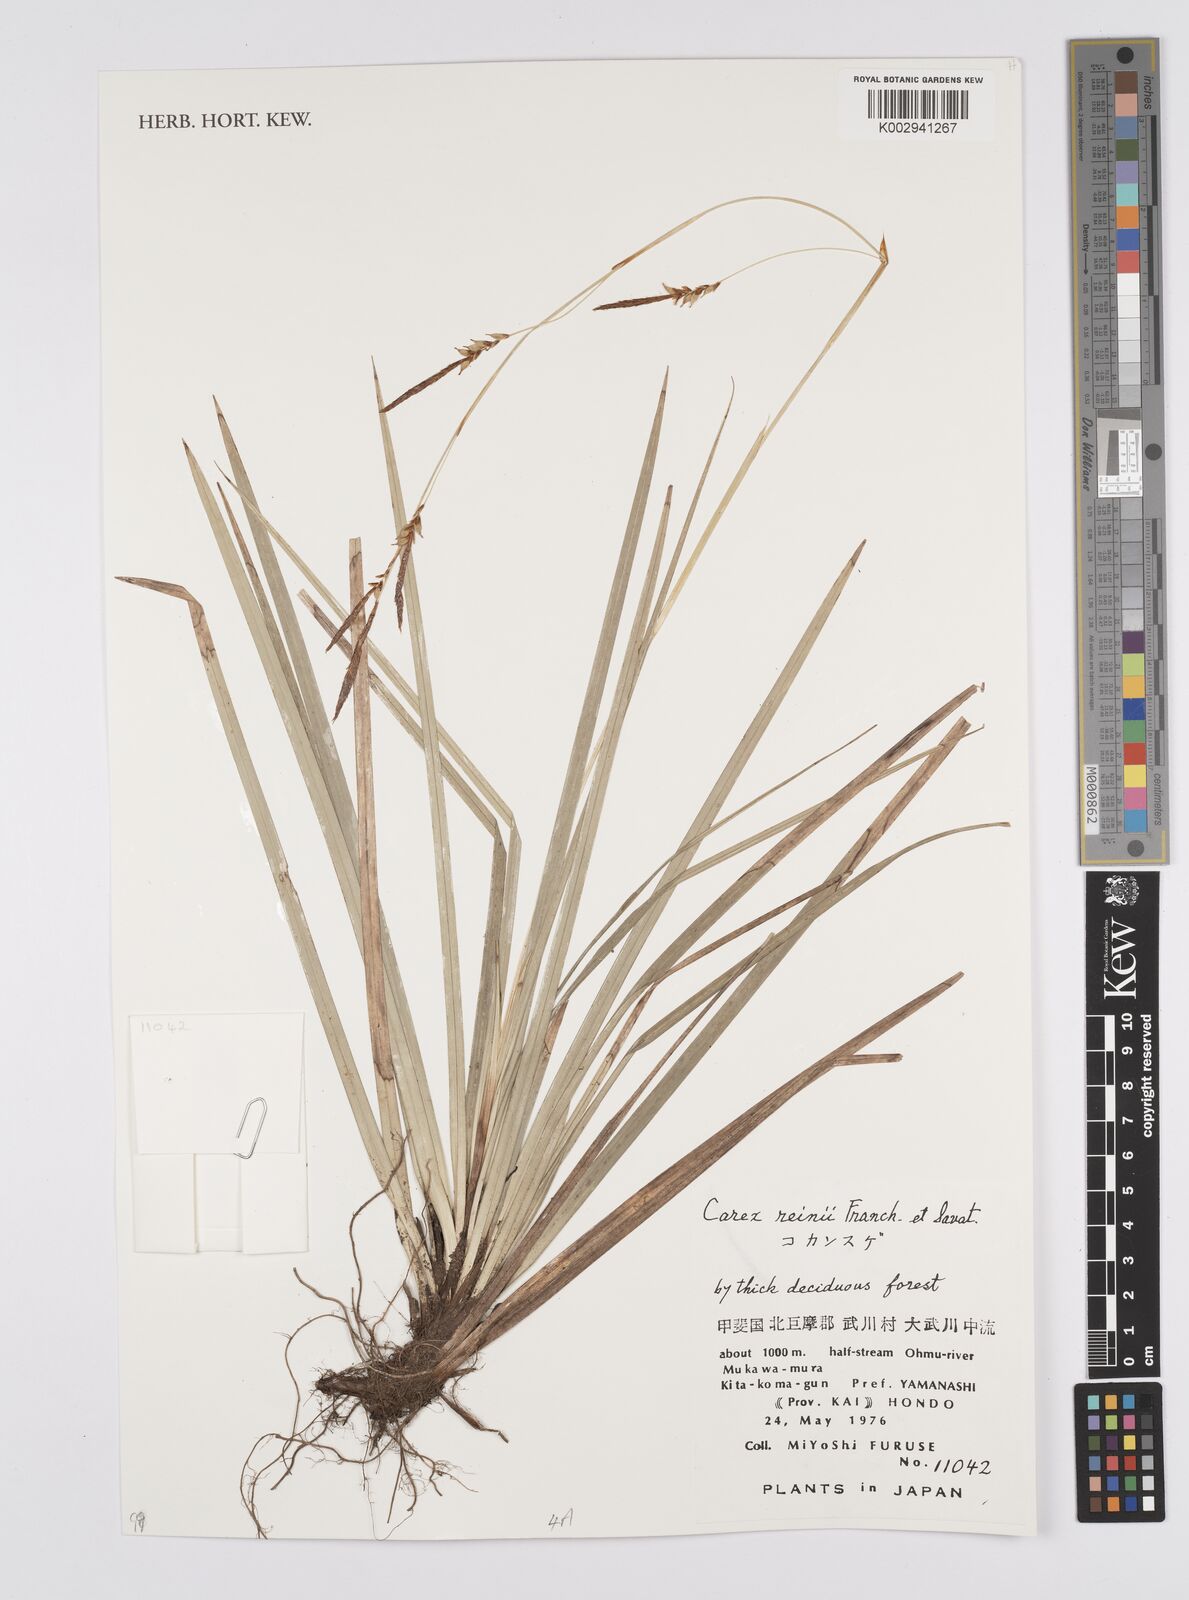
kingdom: Plantae
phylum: Tracheophyta
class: Liliopsida
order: Poales
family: Cyperaceae
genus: Carex
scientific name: Carex reinii
